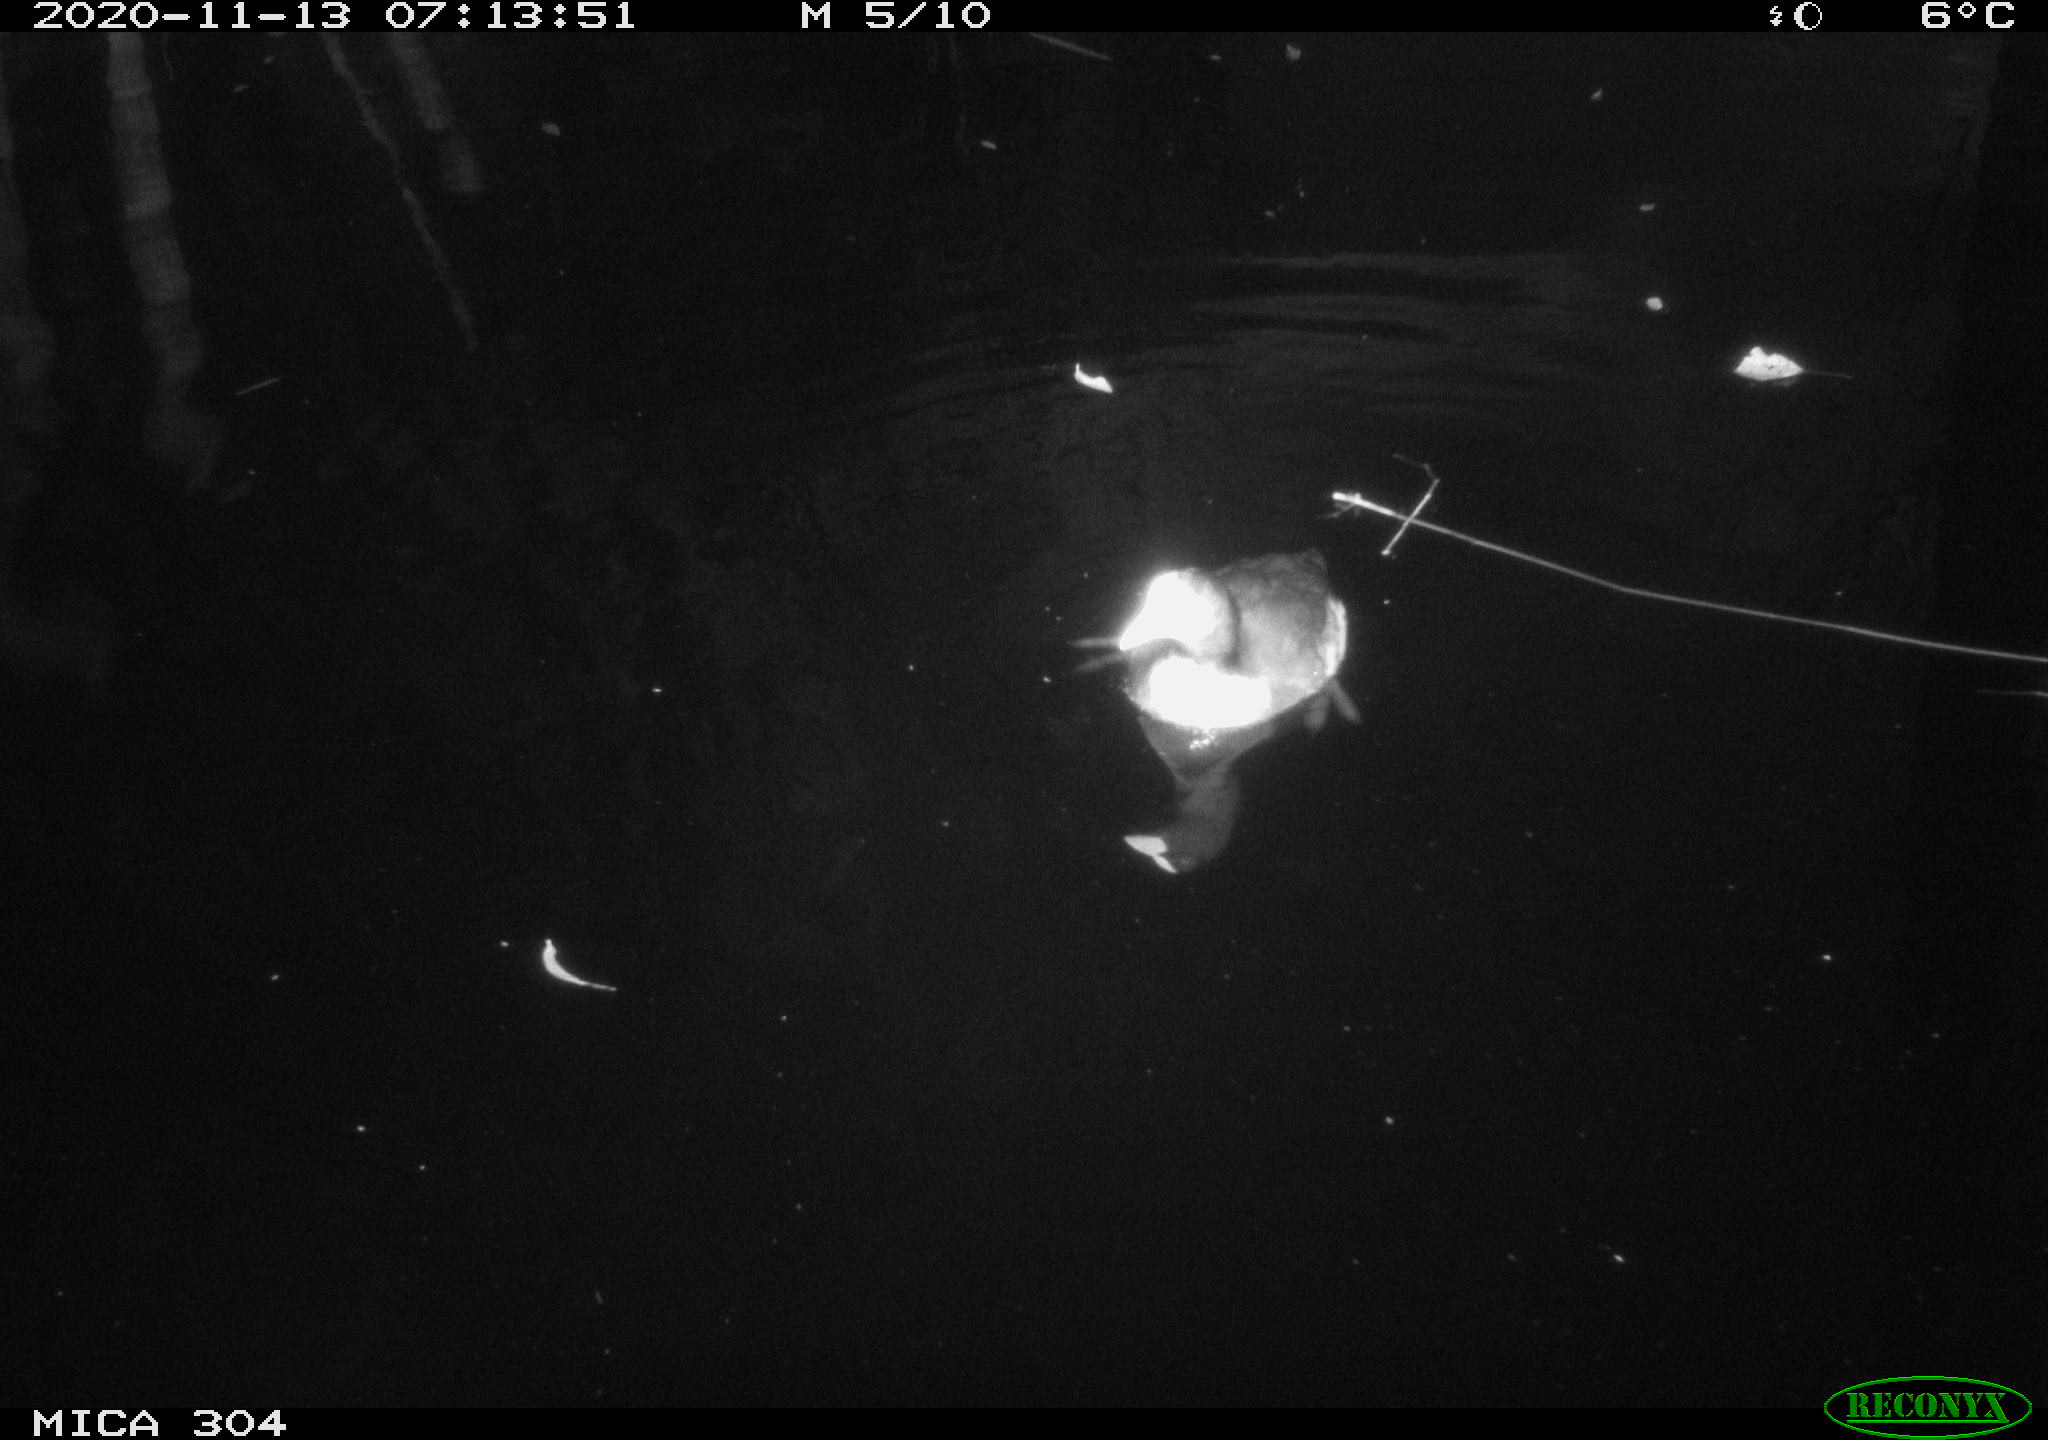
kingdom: Animalia
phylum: Chordata
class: Aves
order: Gruiformes
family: Rallidae
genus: Fulica
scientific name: Fulica atra
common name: Eurasian coot
